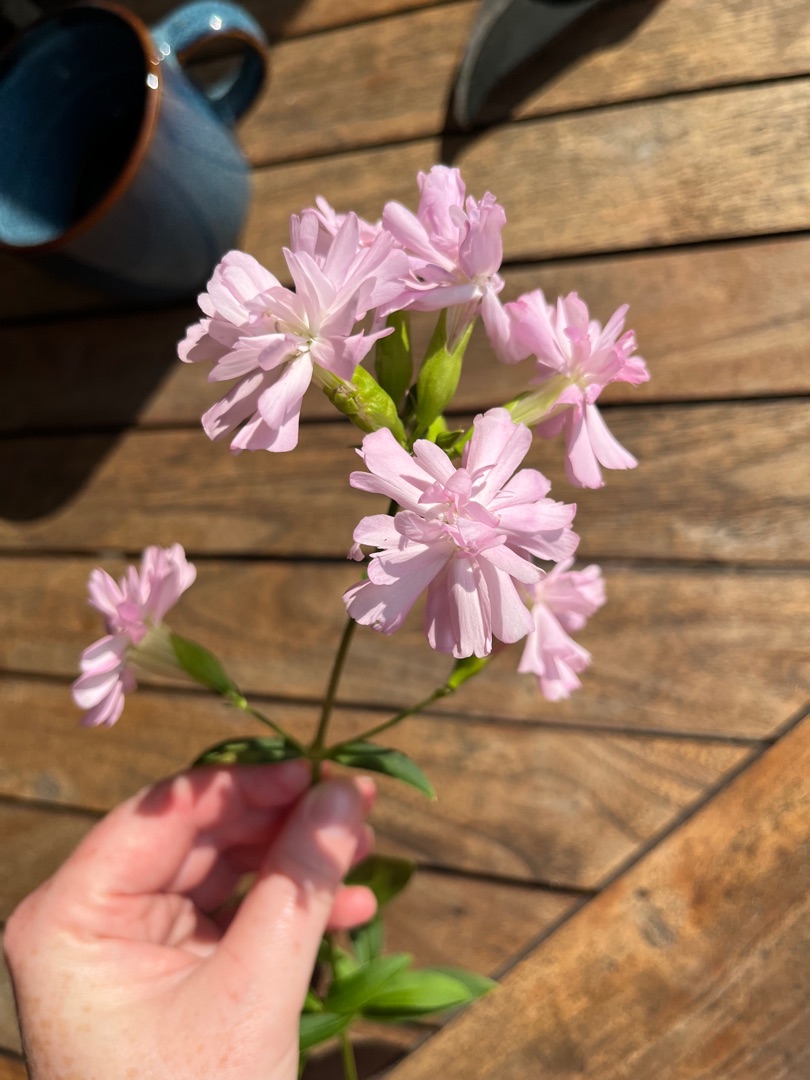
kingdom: Plantae
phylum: Tracheophyta
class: Magnoliopsida
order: Caryophyllales
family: Caryophyllaceae
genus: Saponaria
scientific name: Saponaria officinalis
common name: Sæbeurt
